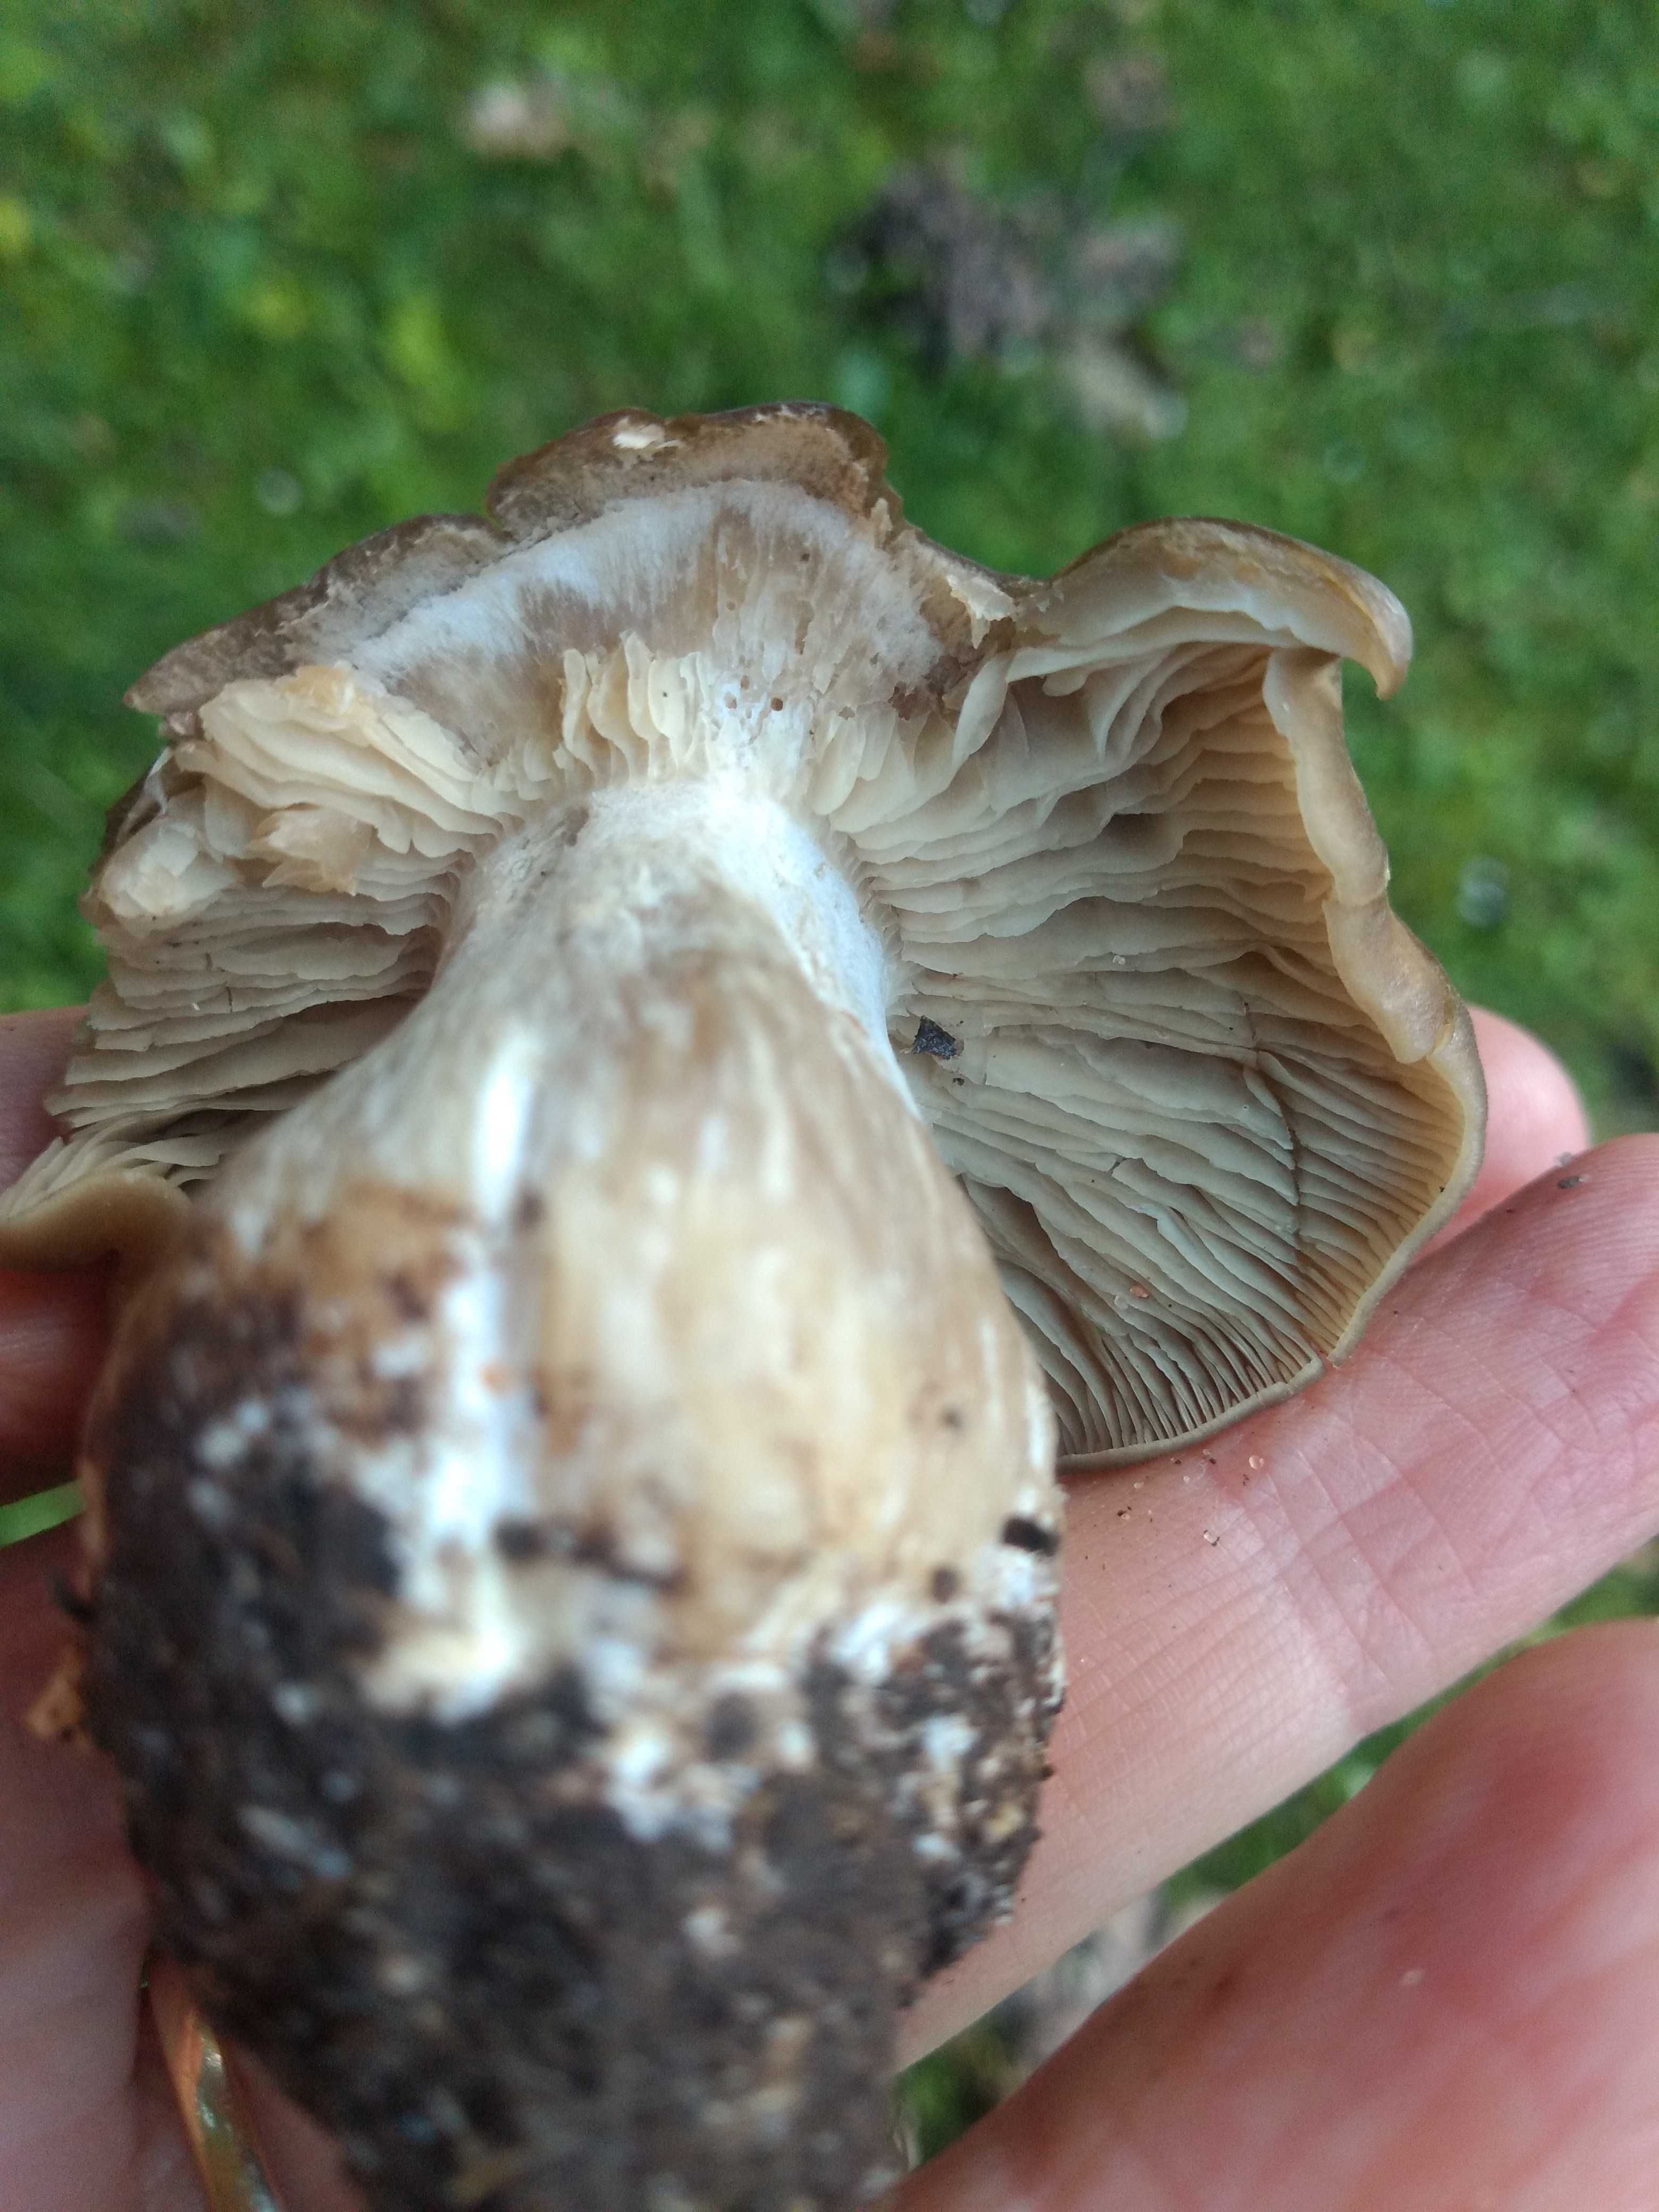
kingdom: Fungi
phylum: Basidiomycota
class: Agaricomycetes
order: Agaricales
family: Lyophyllaceae
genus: Lyophyllum
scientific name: Lyophyllum
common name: gråblad
